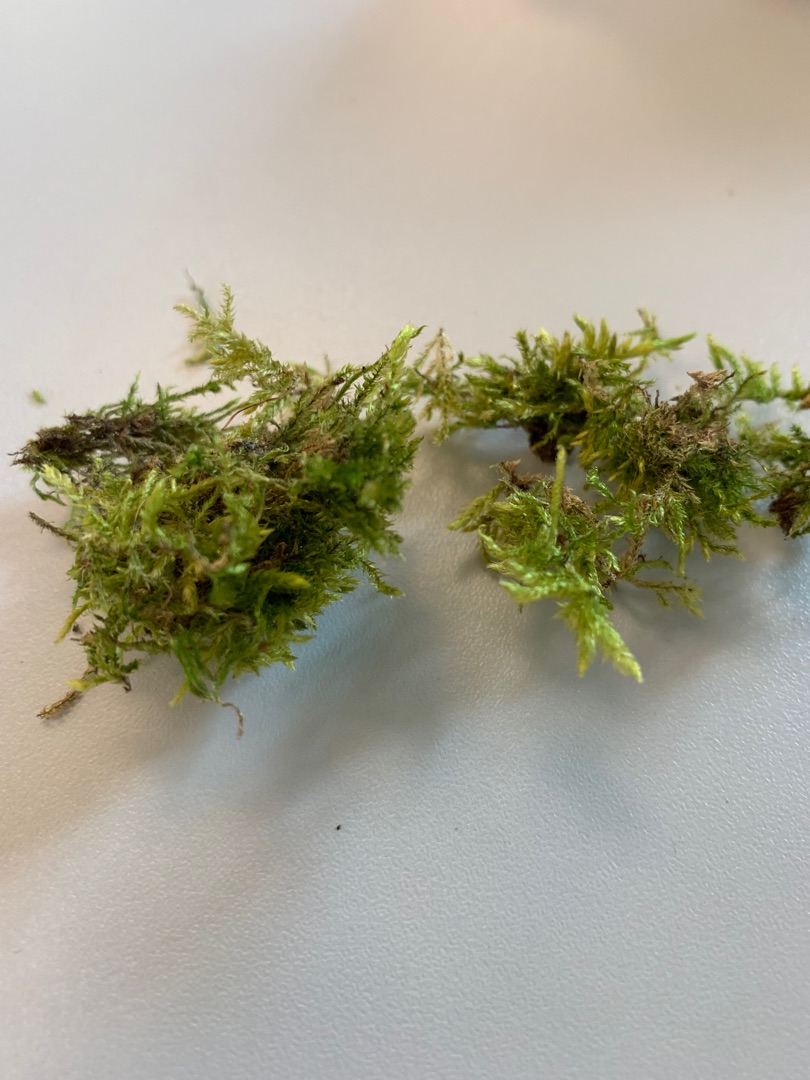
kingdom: Plantae
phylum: Bryophyta
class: Bryopsida
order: Hypnales
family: Brachytheciaceae
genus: Brachythecium
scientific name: Brachythecium
